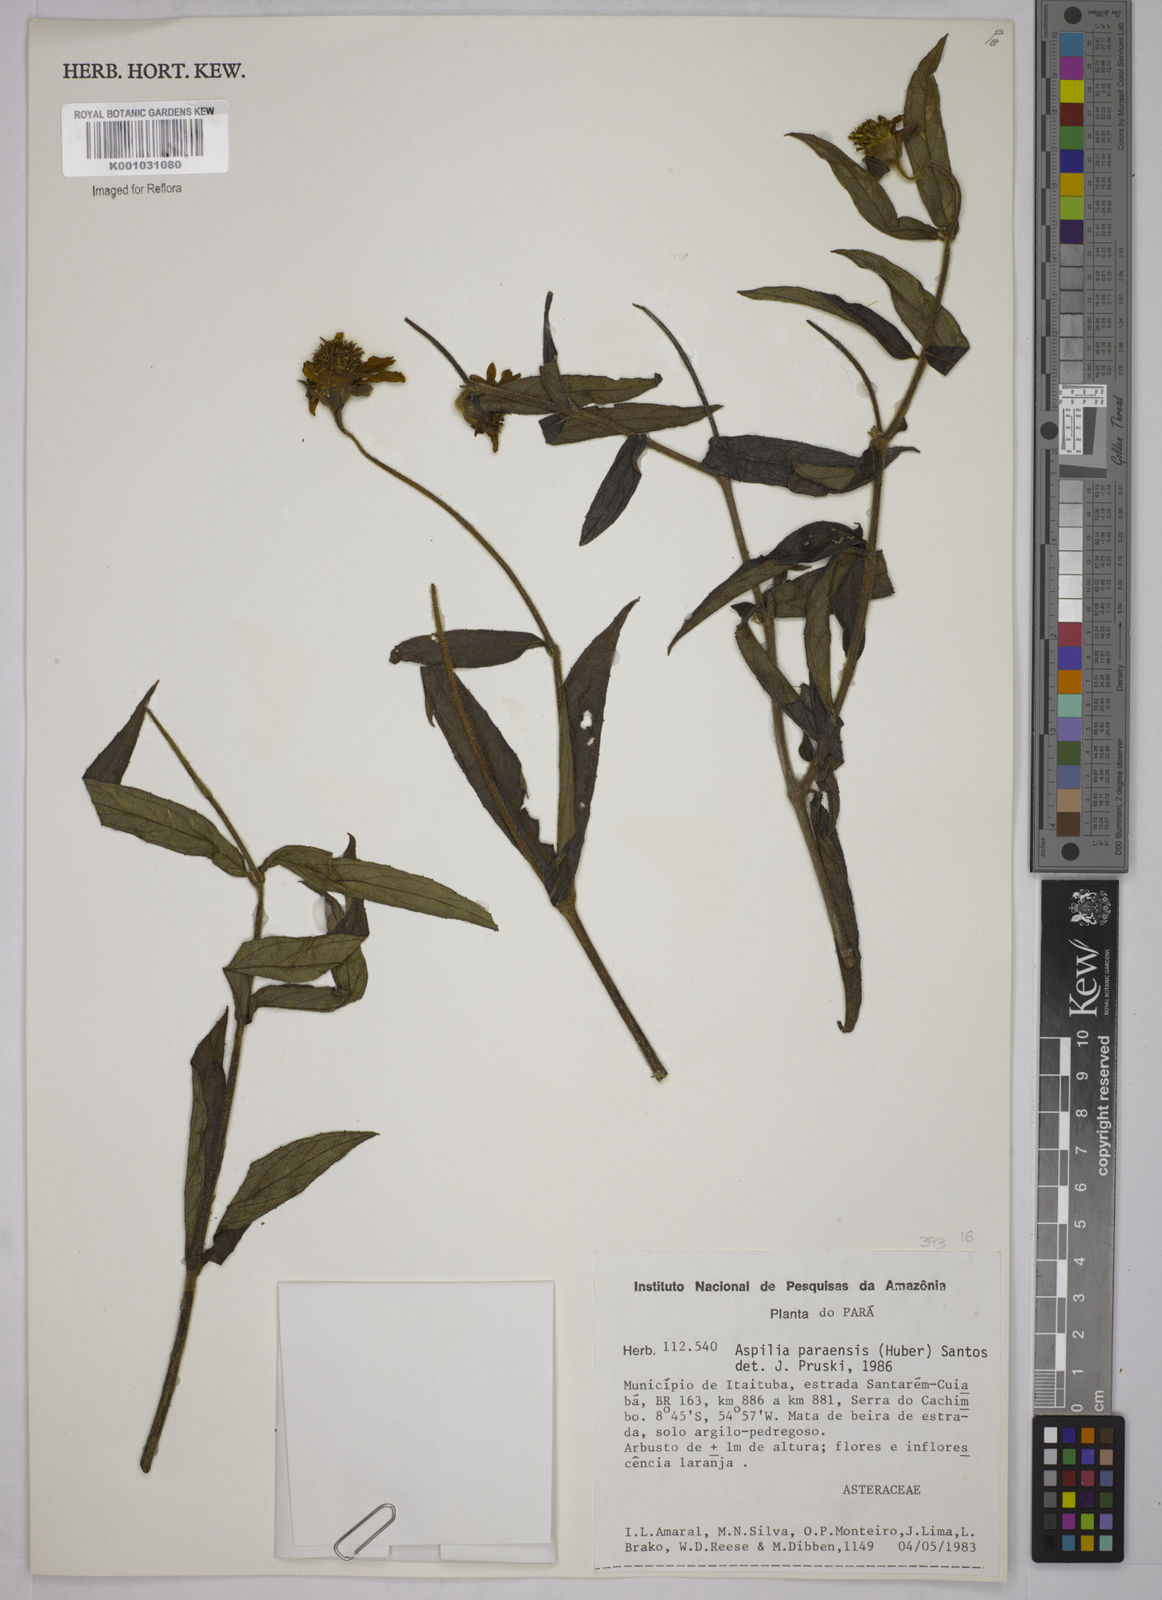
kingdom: Plantae
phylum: Tracheophyta
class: Magnoliopsida
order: Asterales
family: Asteraceae
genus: Aspilia
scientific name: Aspilia paraensis
